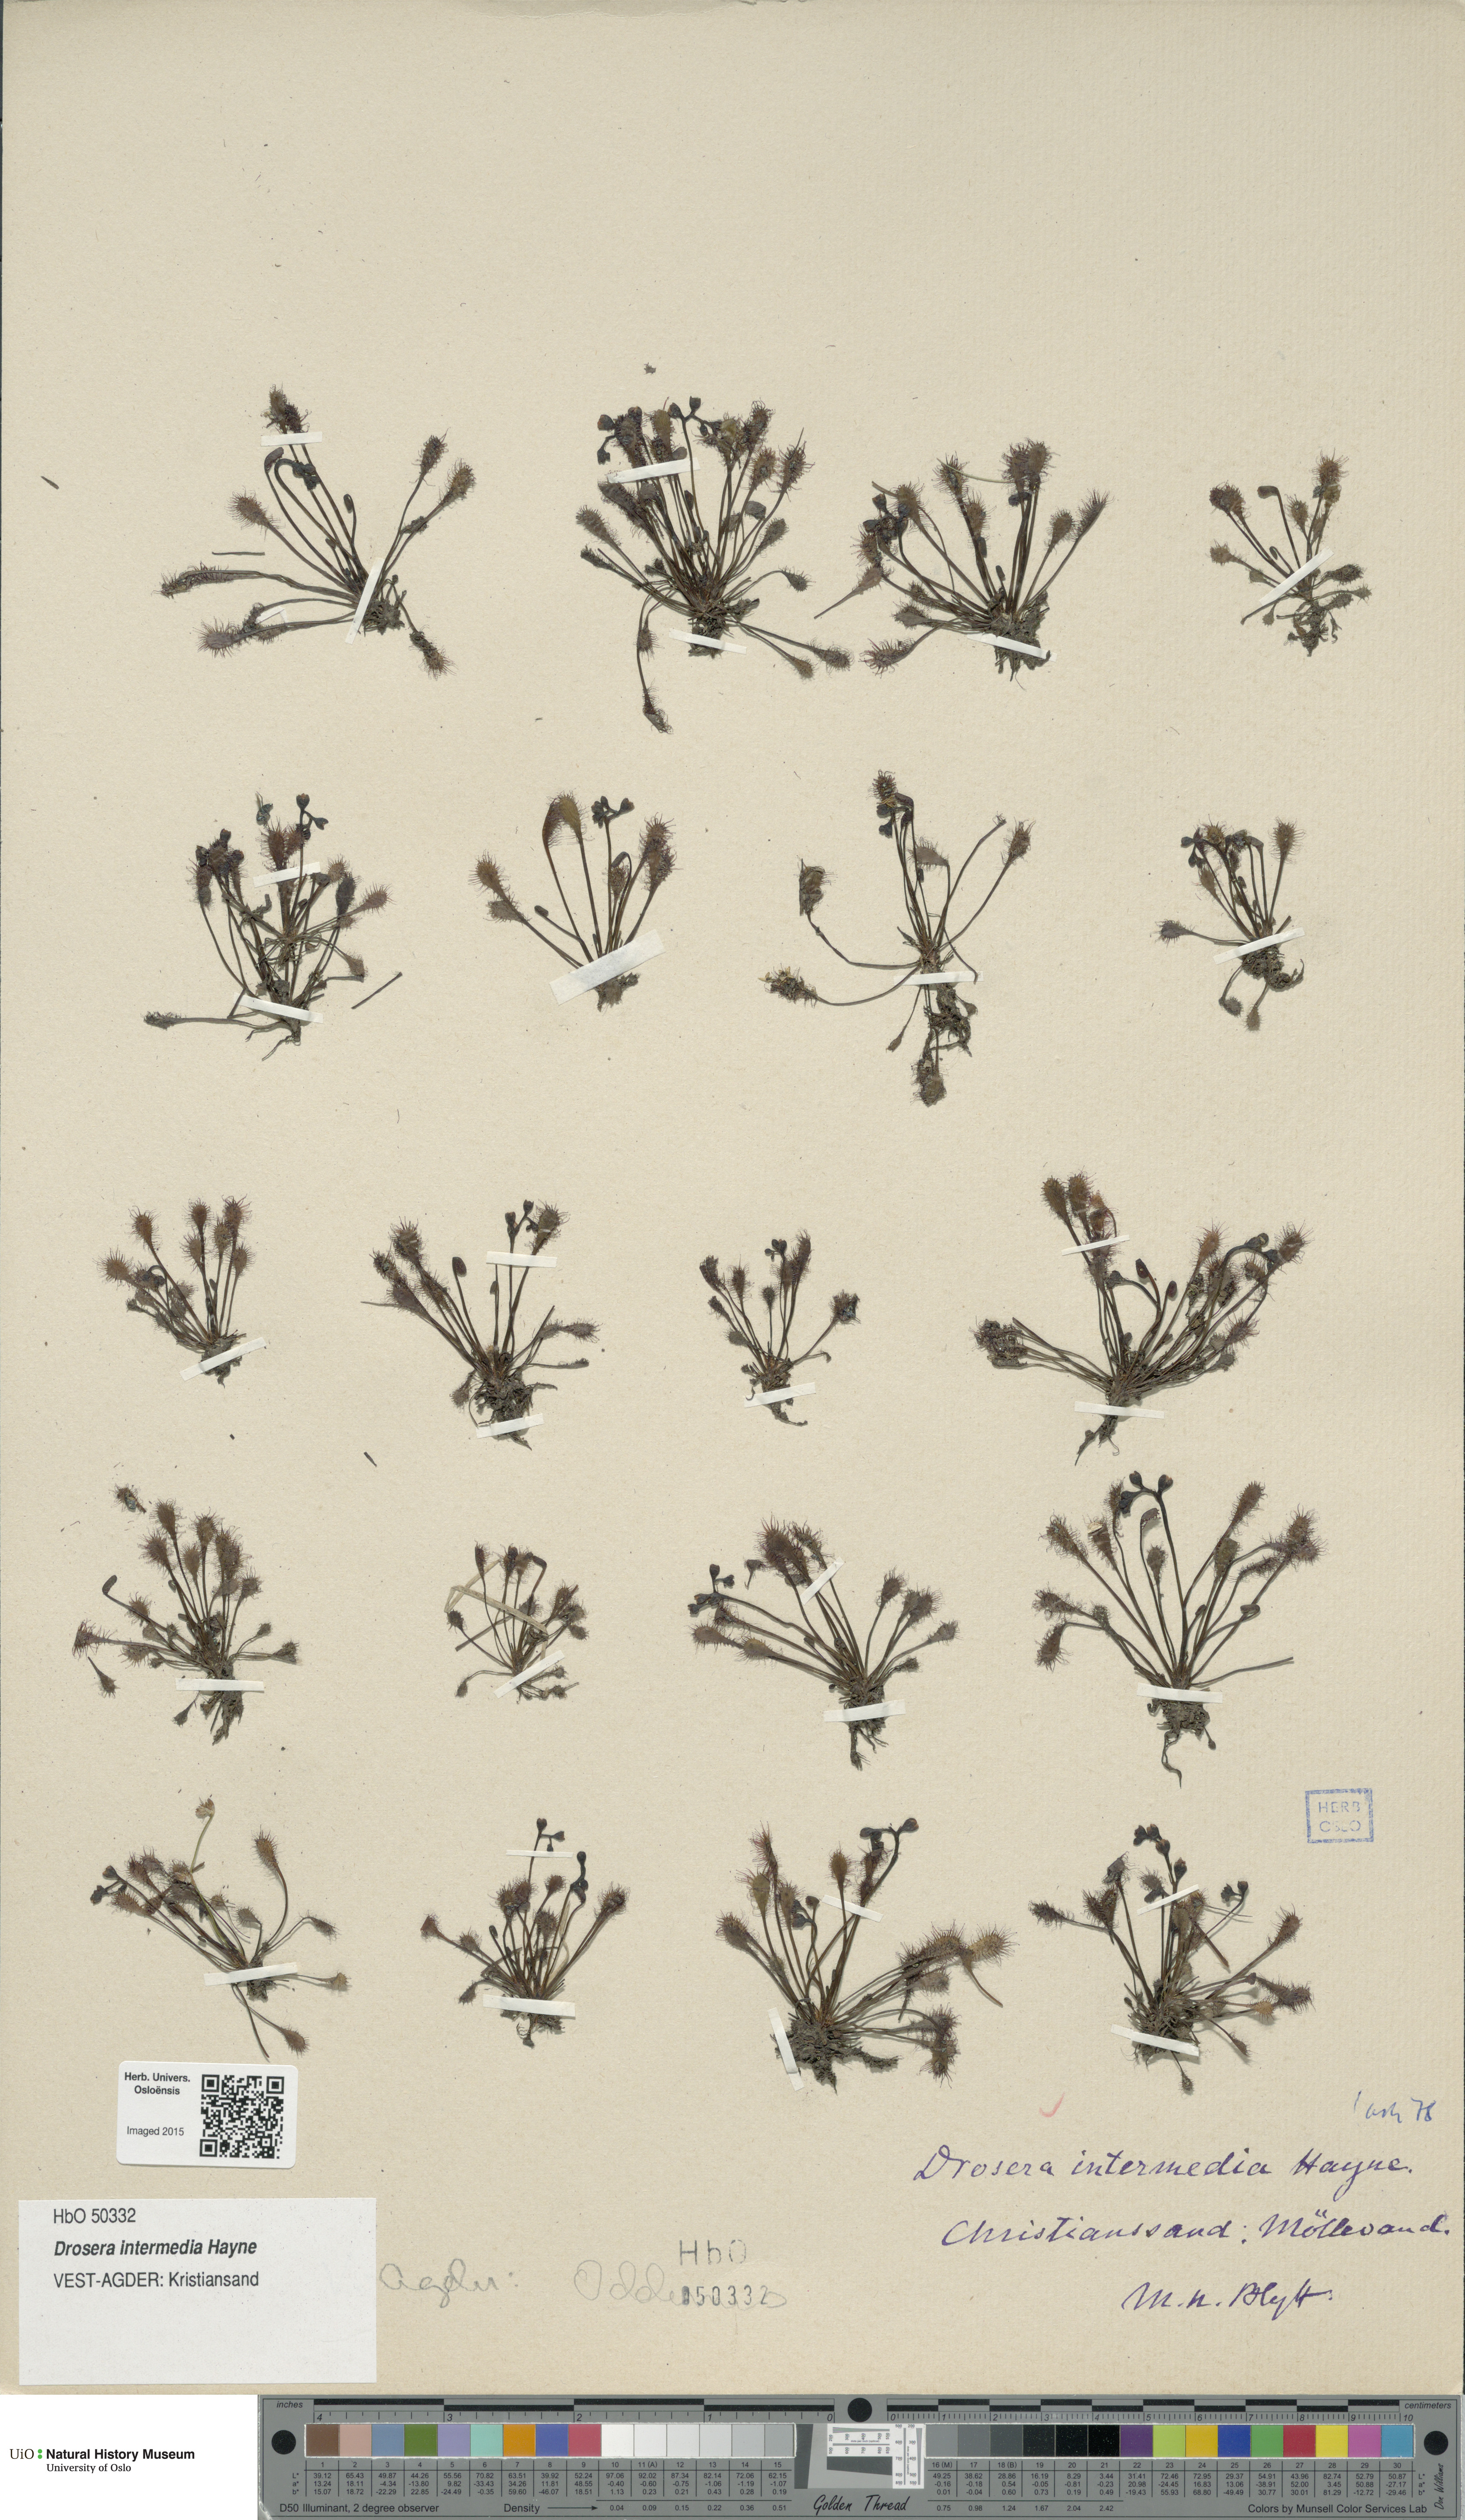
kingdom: Plantae
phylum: Tracheophyta
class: Magnoliopsida
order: Caryophyllales
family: Droseraceae
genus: Drosera
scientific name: Drosera intermedia
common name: Oblong-leaved sundew
